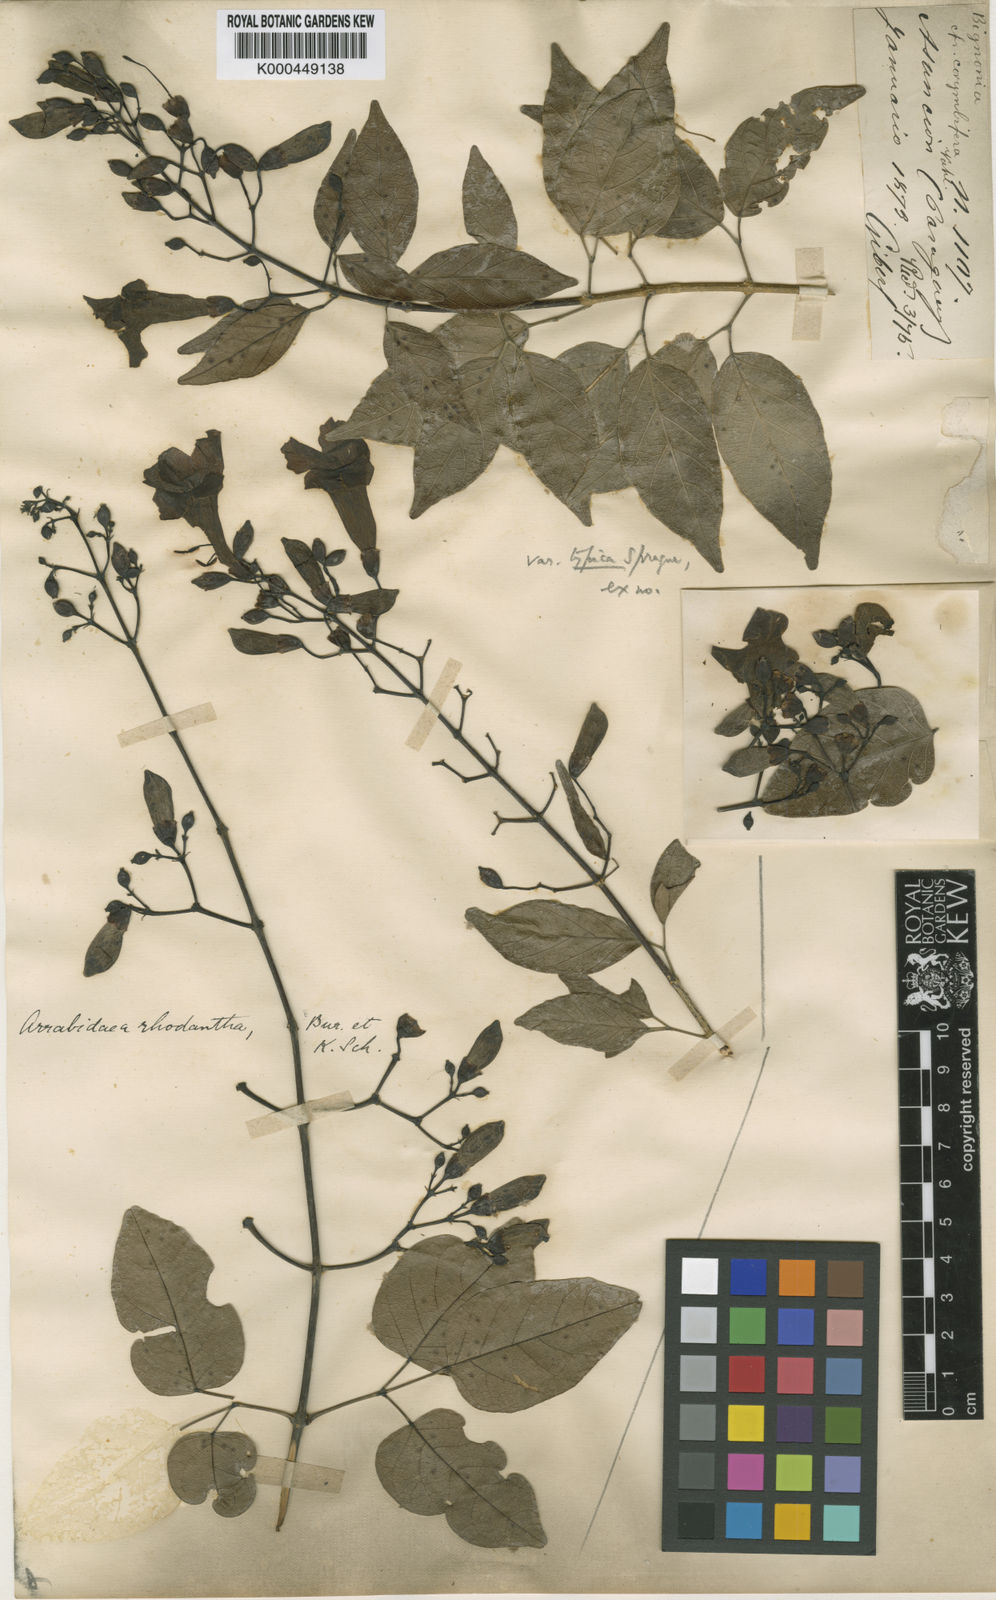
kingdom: Plantae
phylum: Tracheophyta
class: Magnoliopsida
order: Lamiales
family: Bignoniaceae
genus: Tanaecium
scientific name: Tanaecium dichotomum
